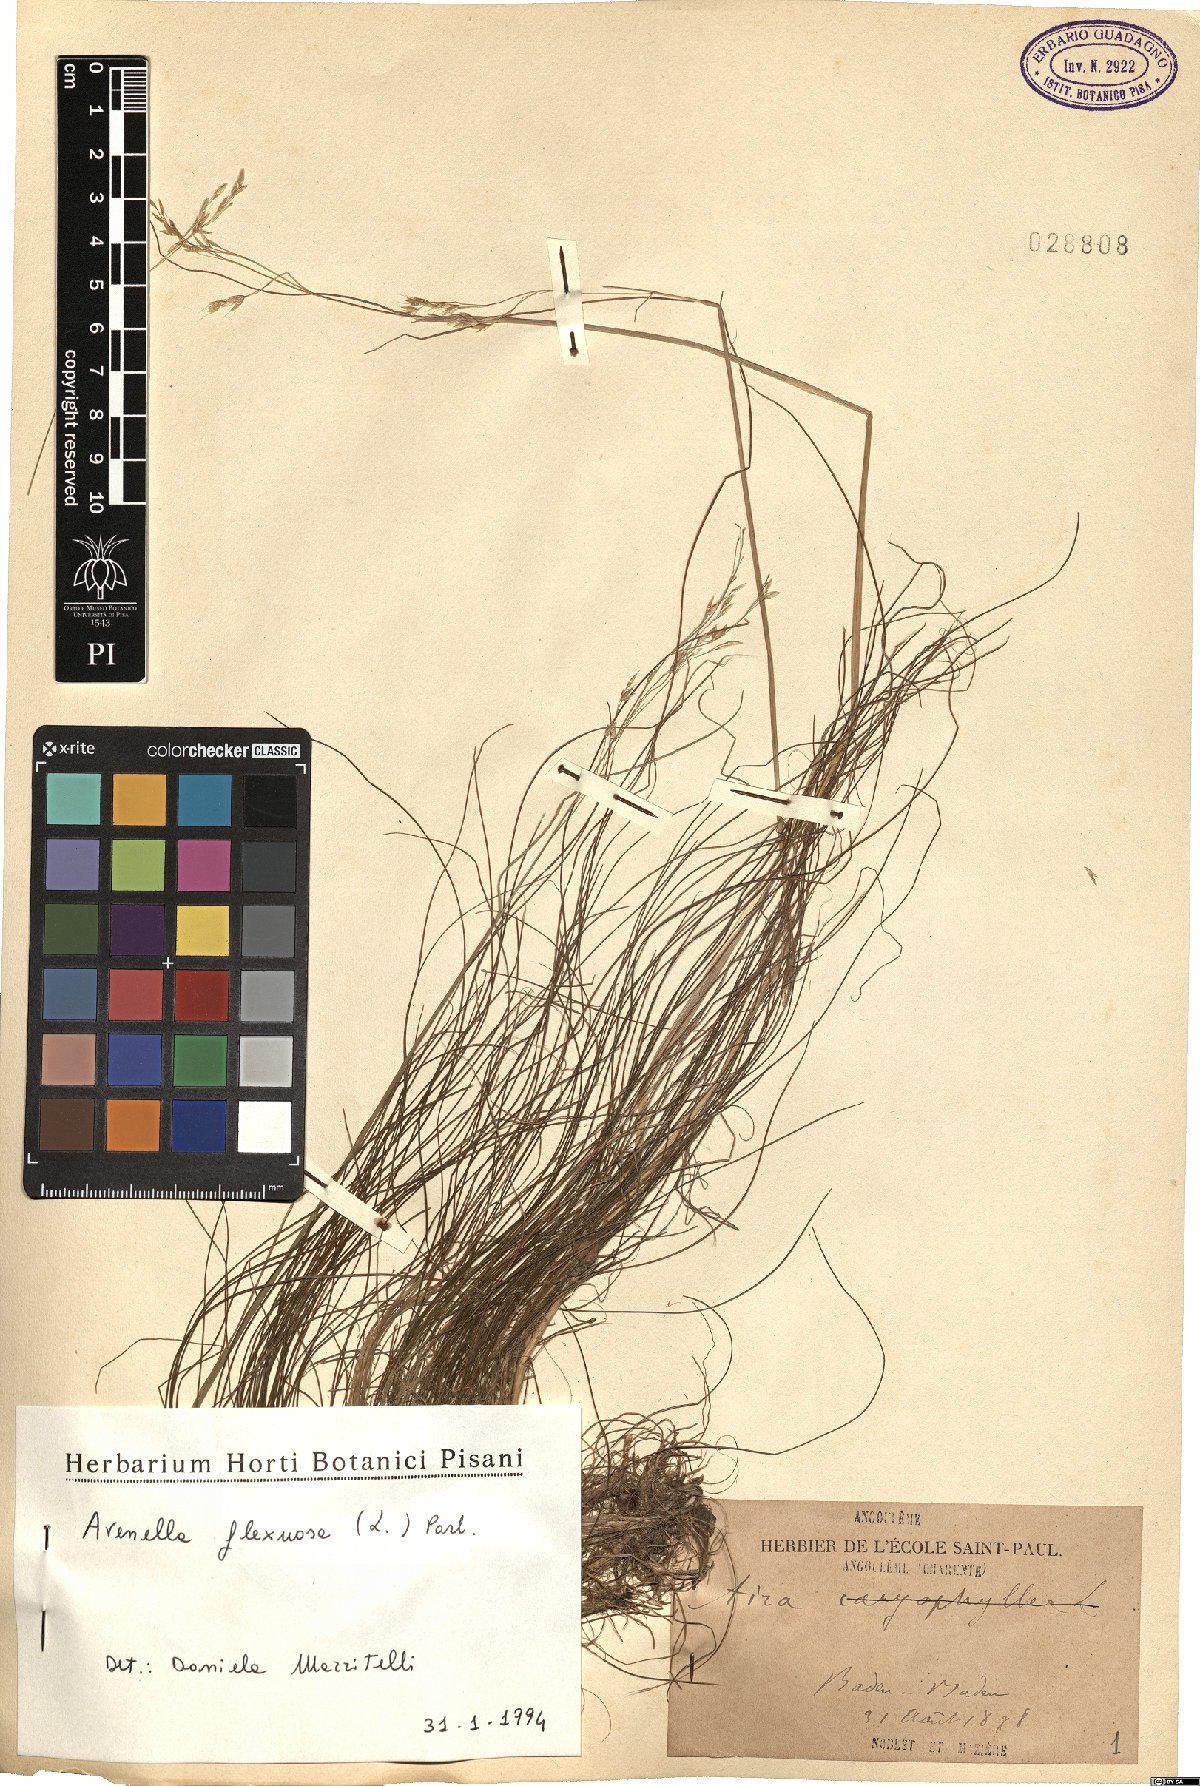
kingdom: Plantae
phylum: Tracheophyta
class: Liliopsida
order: Poales
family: Poaceae
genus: Avenella
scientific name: Avenella flexuosa
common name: Wavy hairgrass
